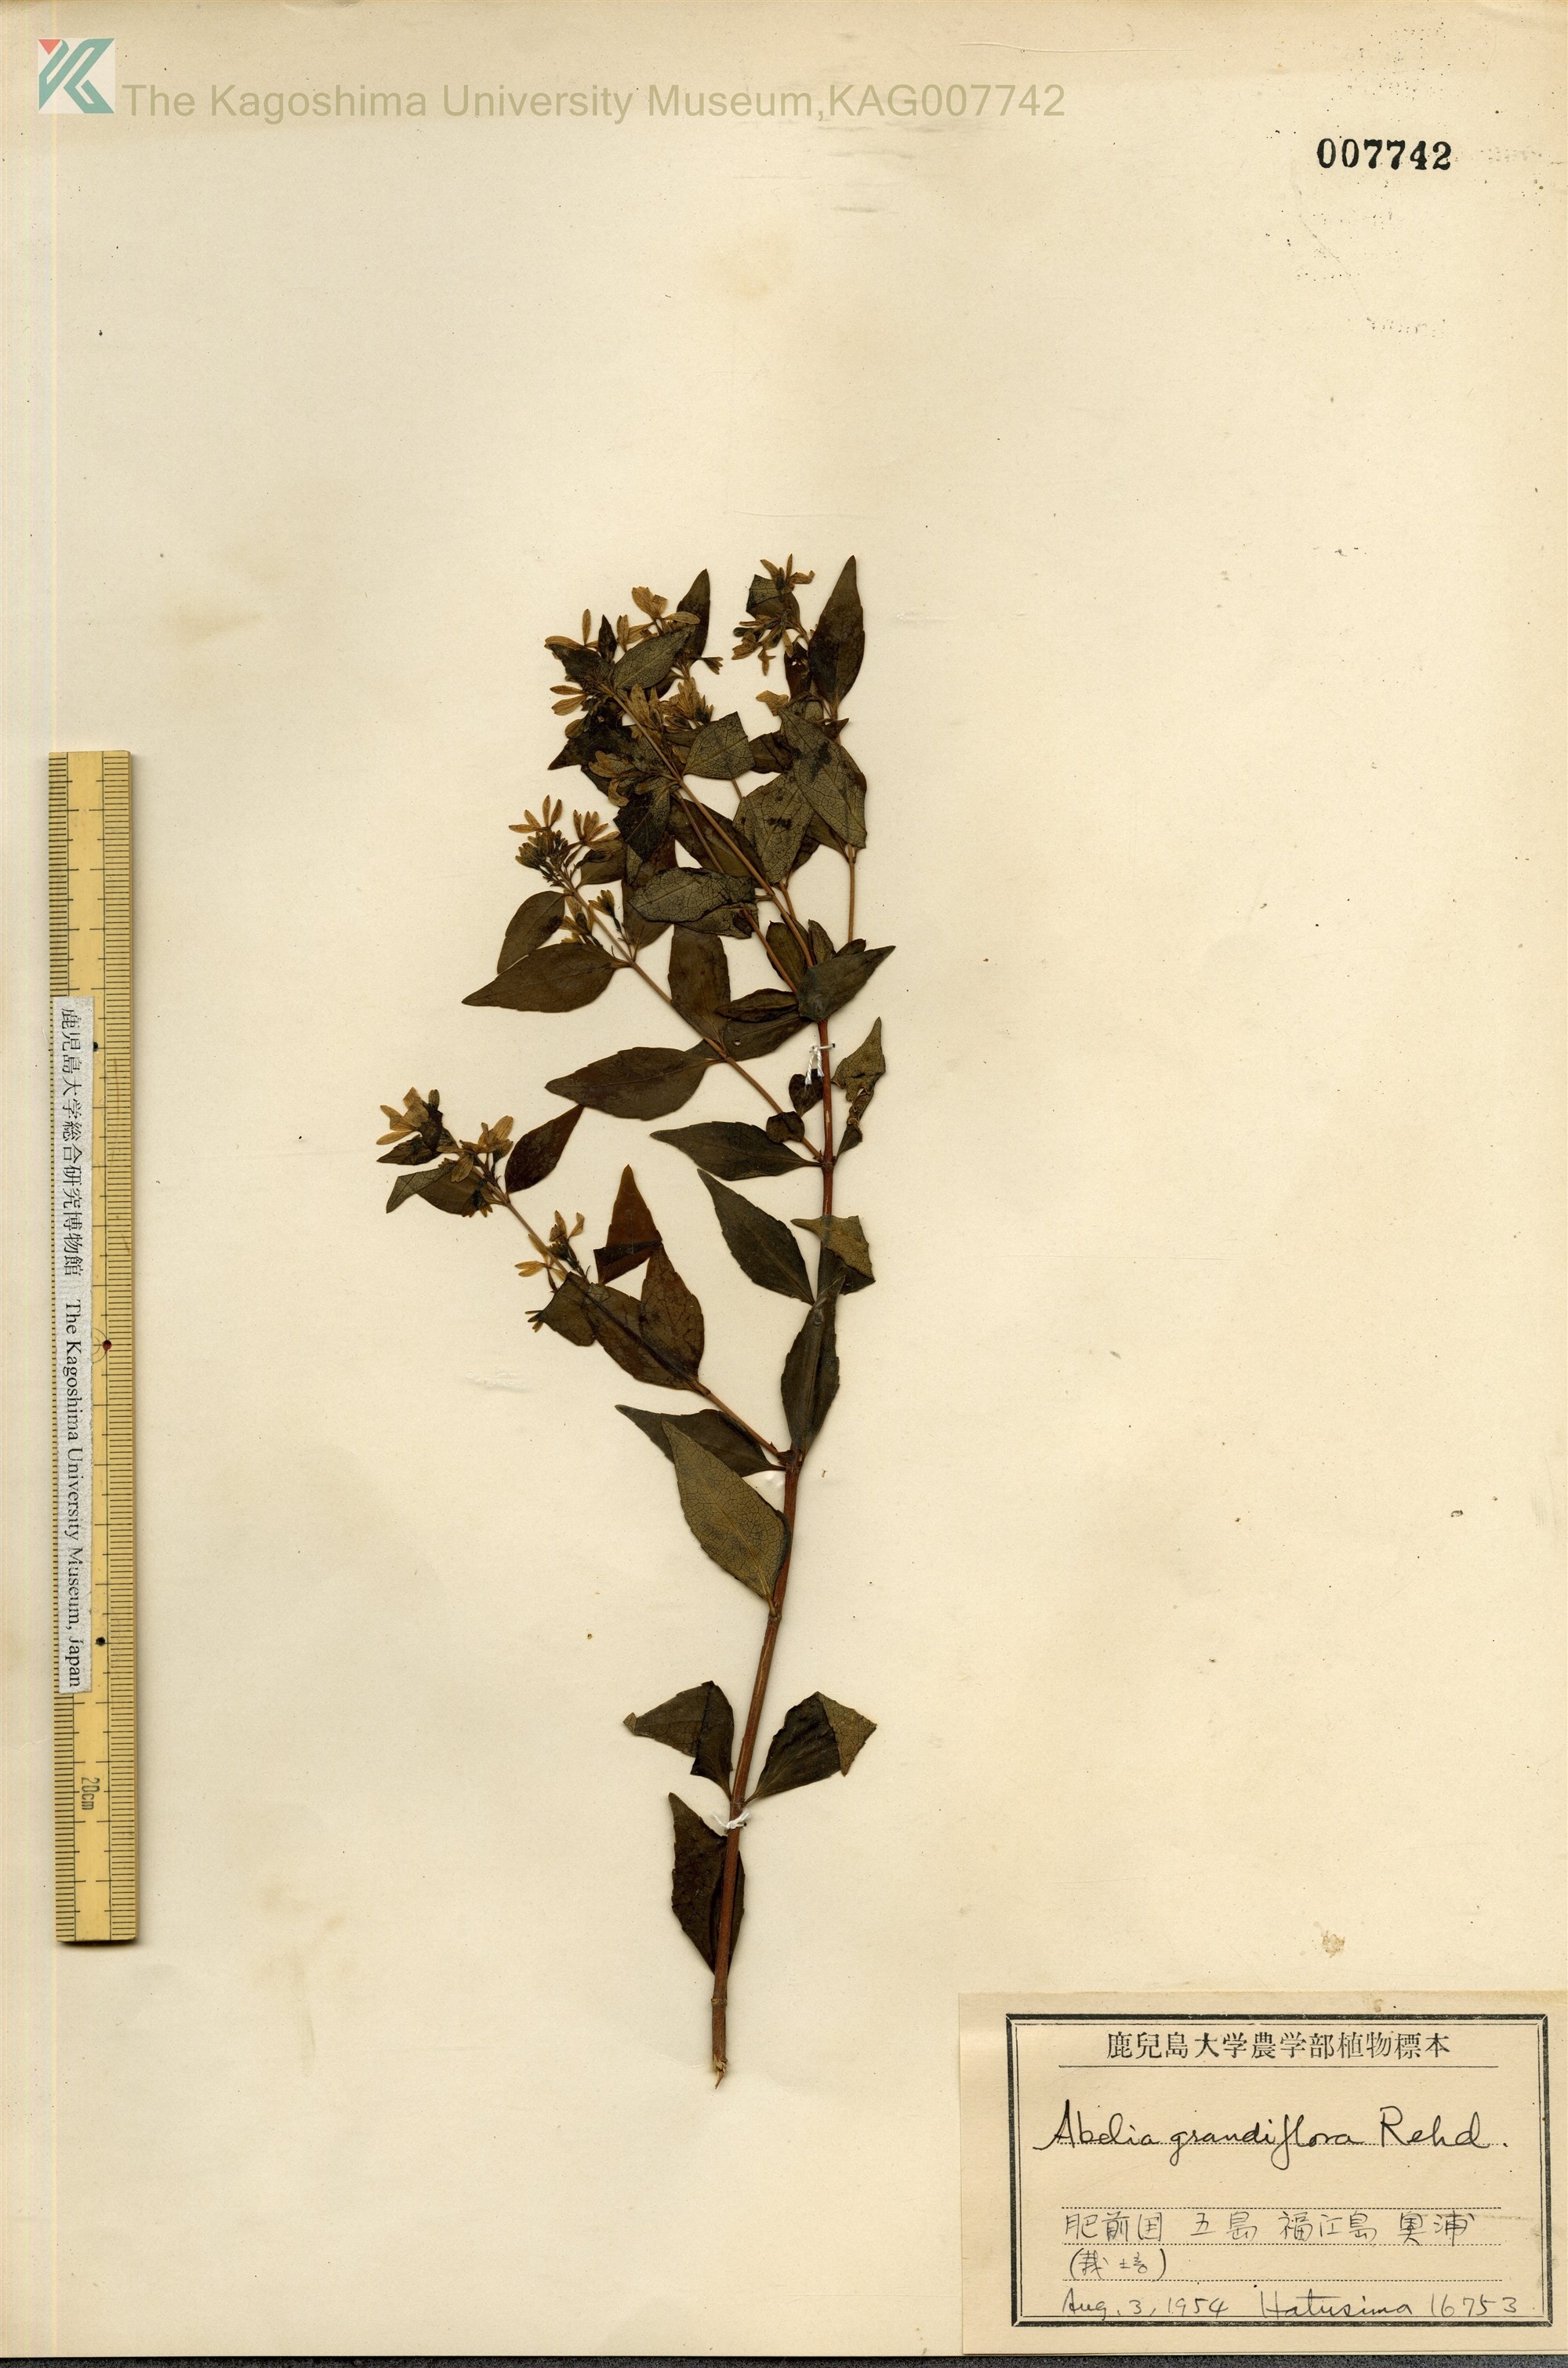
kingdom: Plantae
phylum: Tracheophyta
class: Magnoliopsida
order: Dipsacales
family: Caprifoliaceae
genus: Abelia
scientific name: Abelia chinensis
